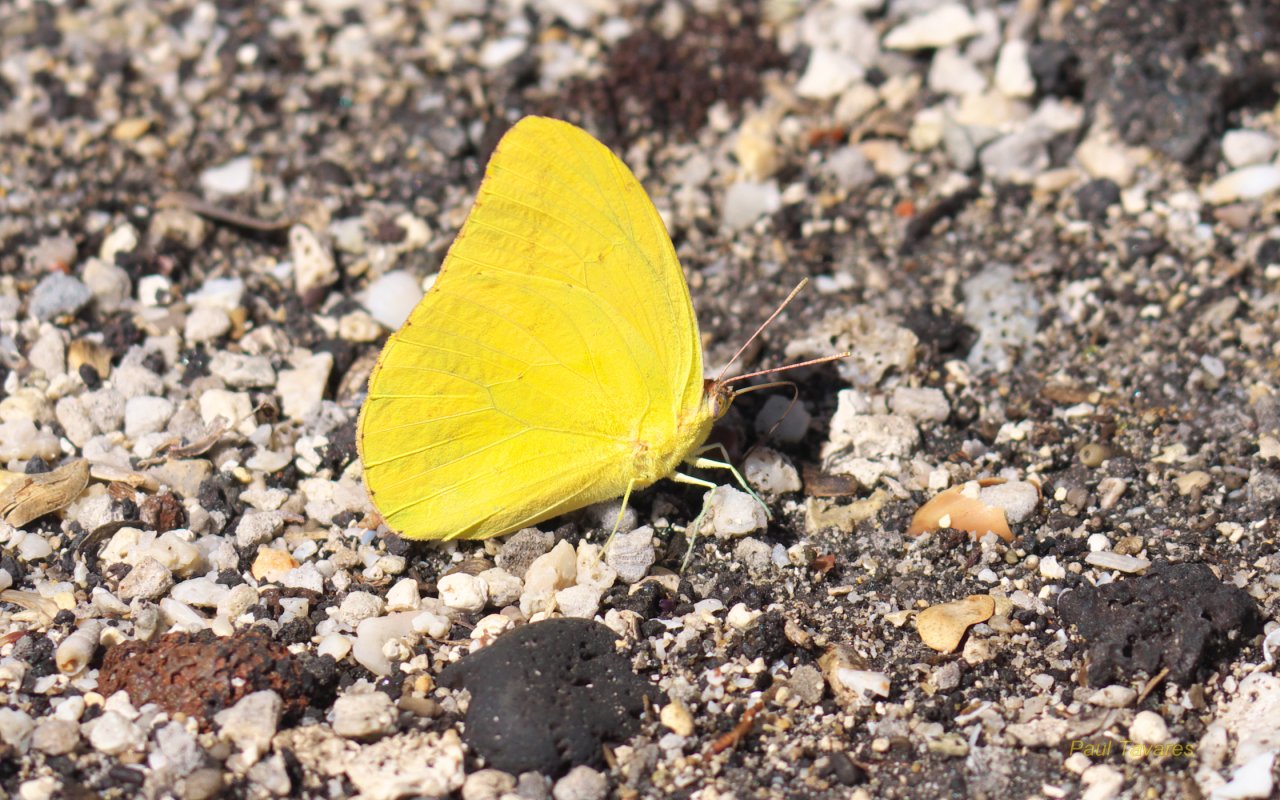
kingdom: Animalia
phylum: Arthropoda
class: Insecta
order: Lepidoptera
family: Pieridae
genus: Phoebis
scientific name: Phoebis agarithe
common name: Large Orange Sulphur
